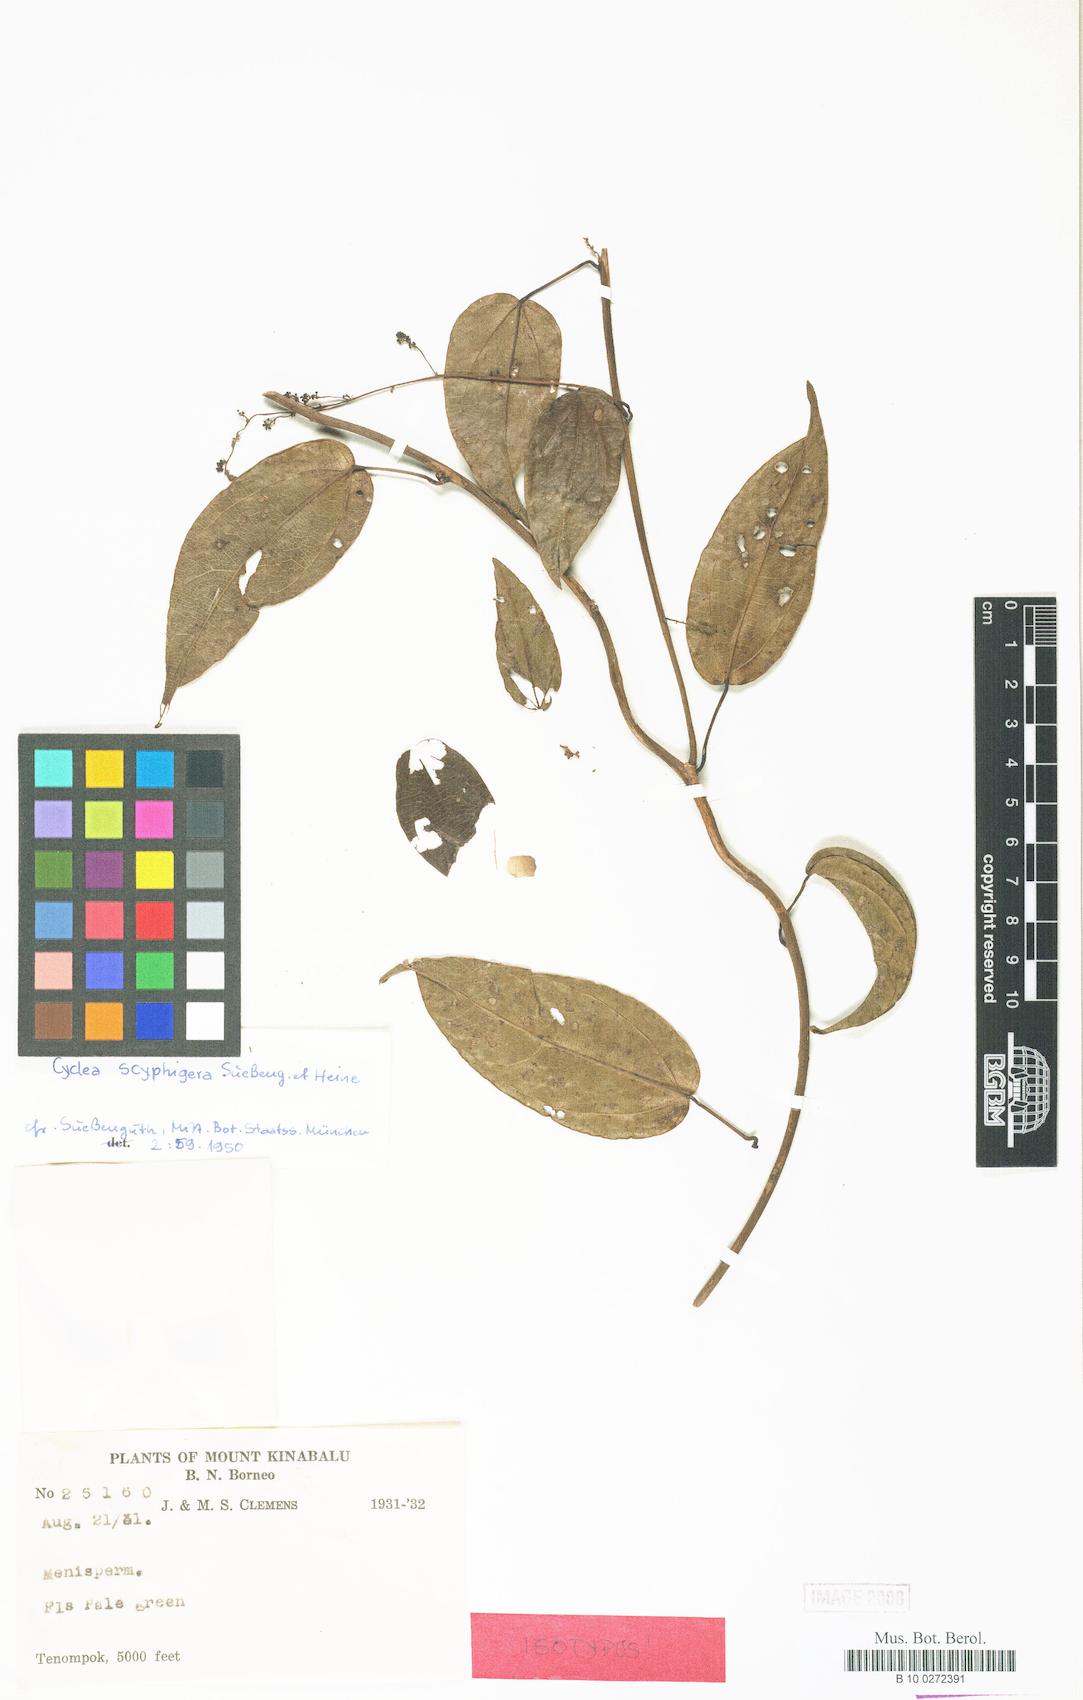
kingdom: Plantae
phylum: Tracheophyta
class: Magnoliopsida
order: Ranunculales
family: Menispermaceae
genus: Cyclea
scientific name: Cyclea elegans
